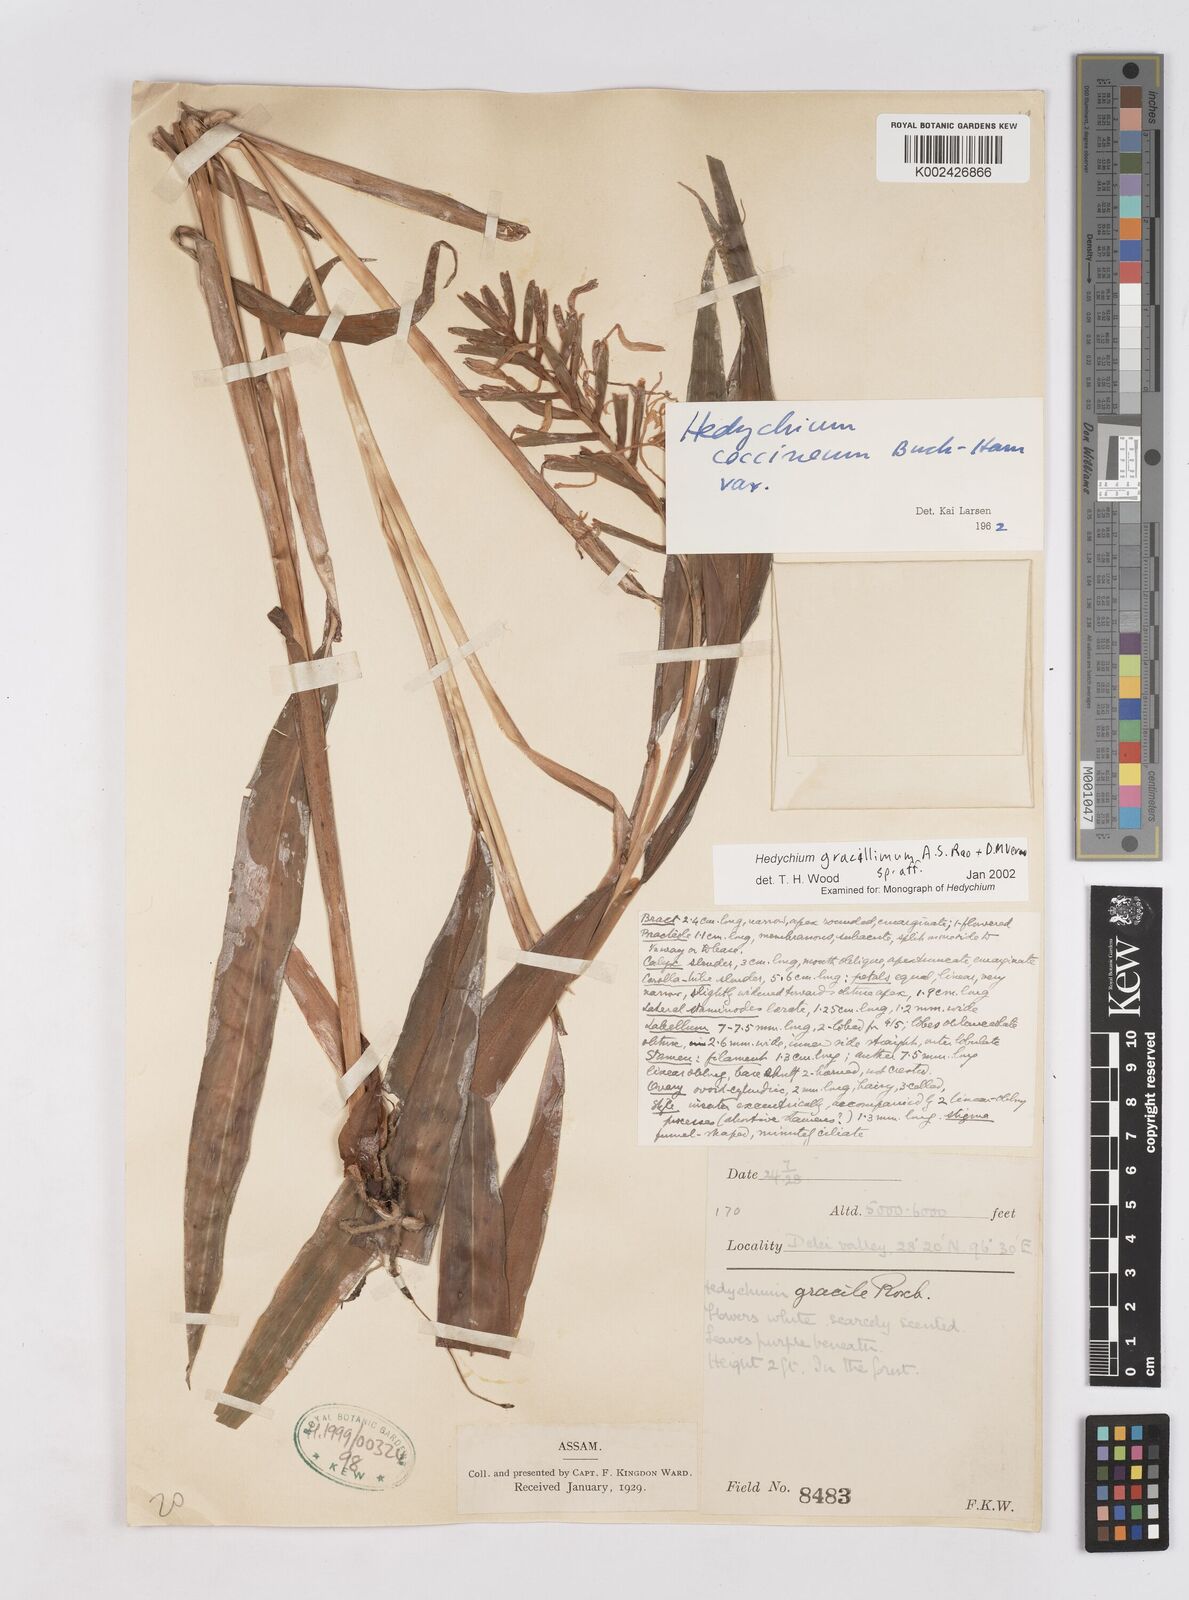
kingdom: Plantae
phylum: Tracheophyta
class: Liliopsida
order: Zingiberales
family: Zingiberaceae
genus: Hedychium
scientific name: Hedychium gracillimum
